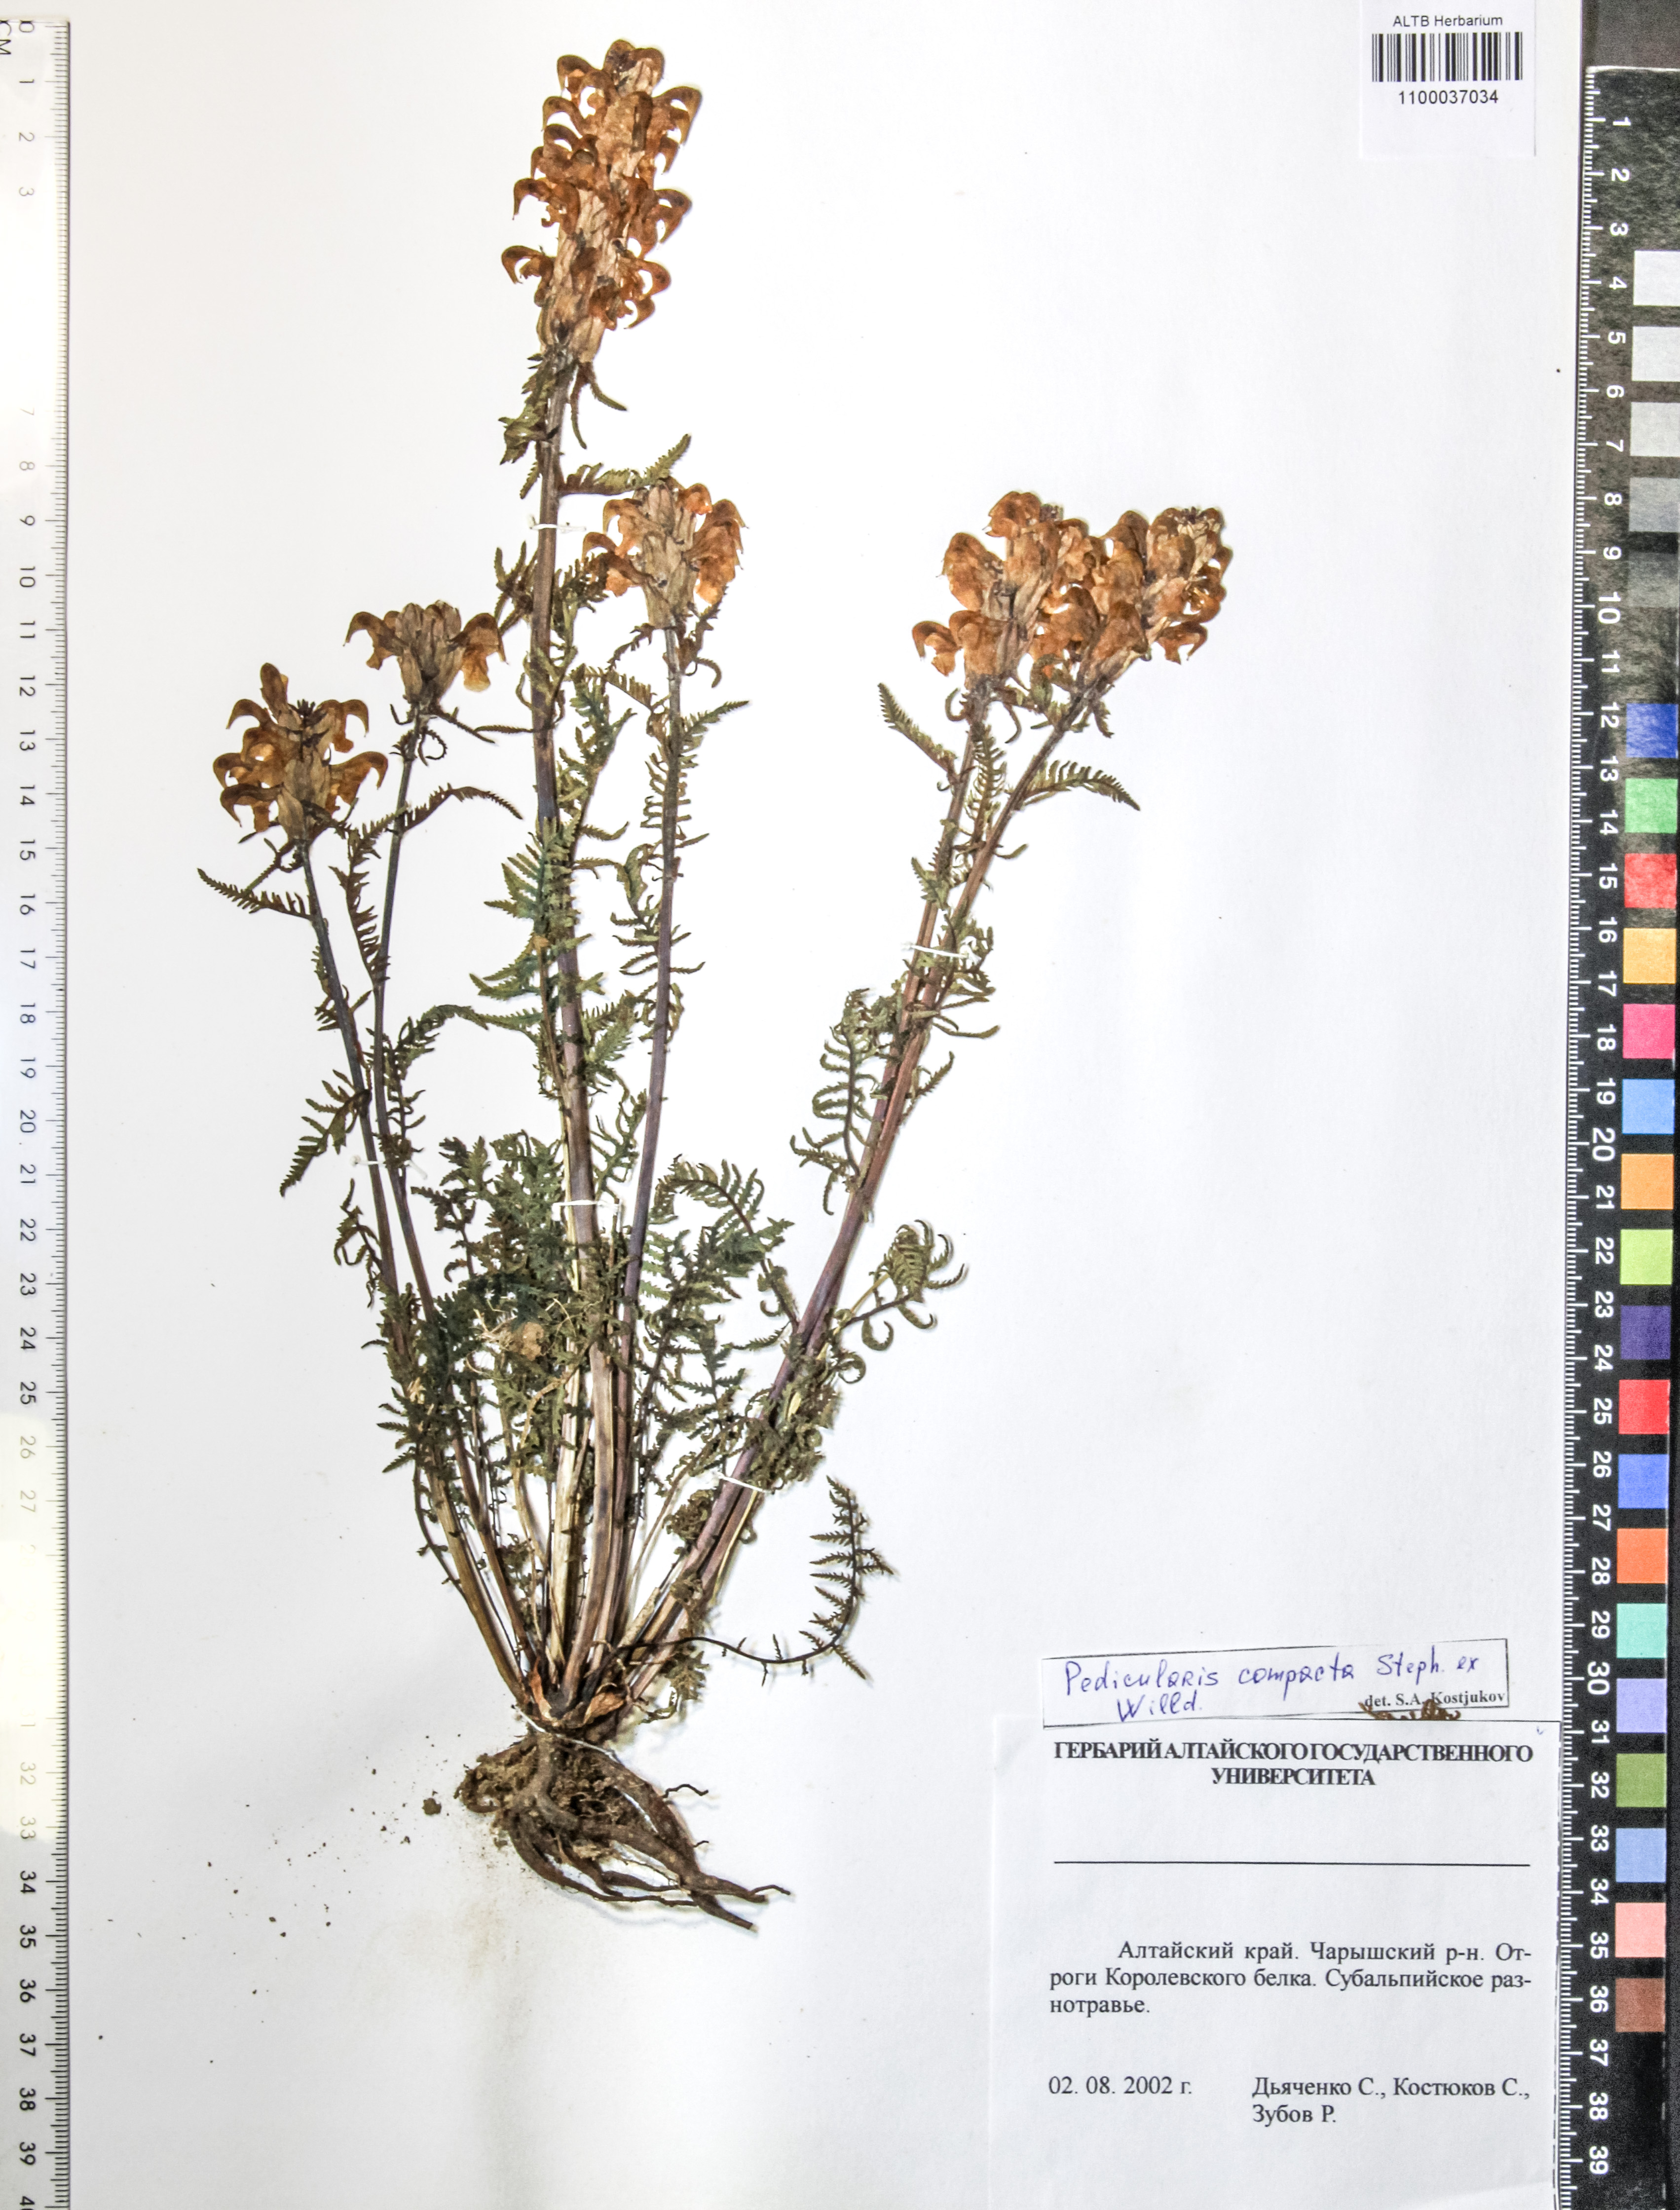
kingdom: Plantae
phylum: Tracheophyta
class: Magnoliopsida
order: Lamiales
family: Orobanchaceae
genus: Pedicularis
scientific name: Pedicularis compacta
